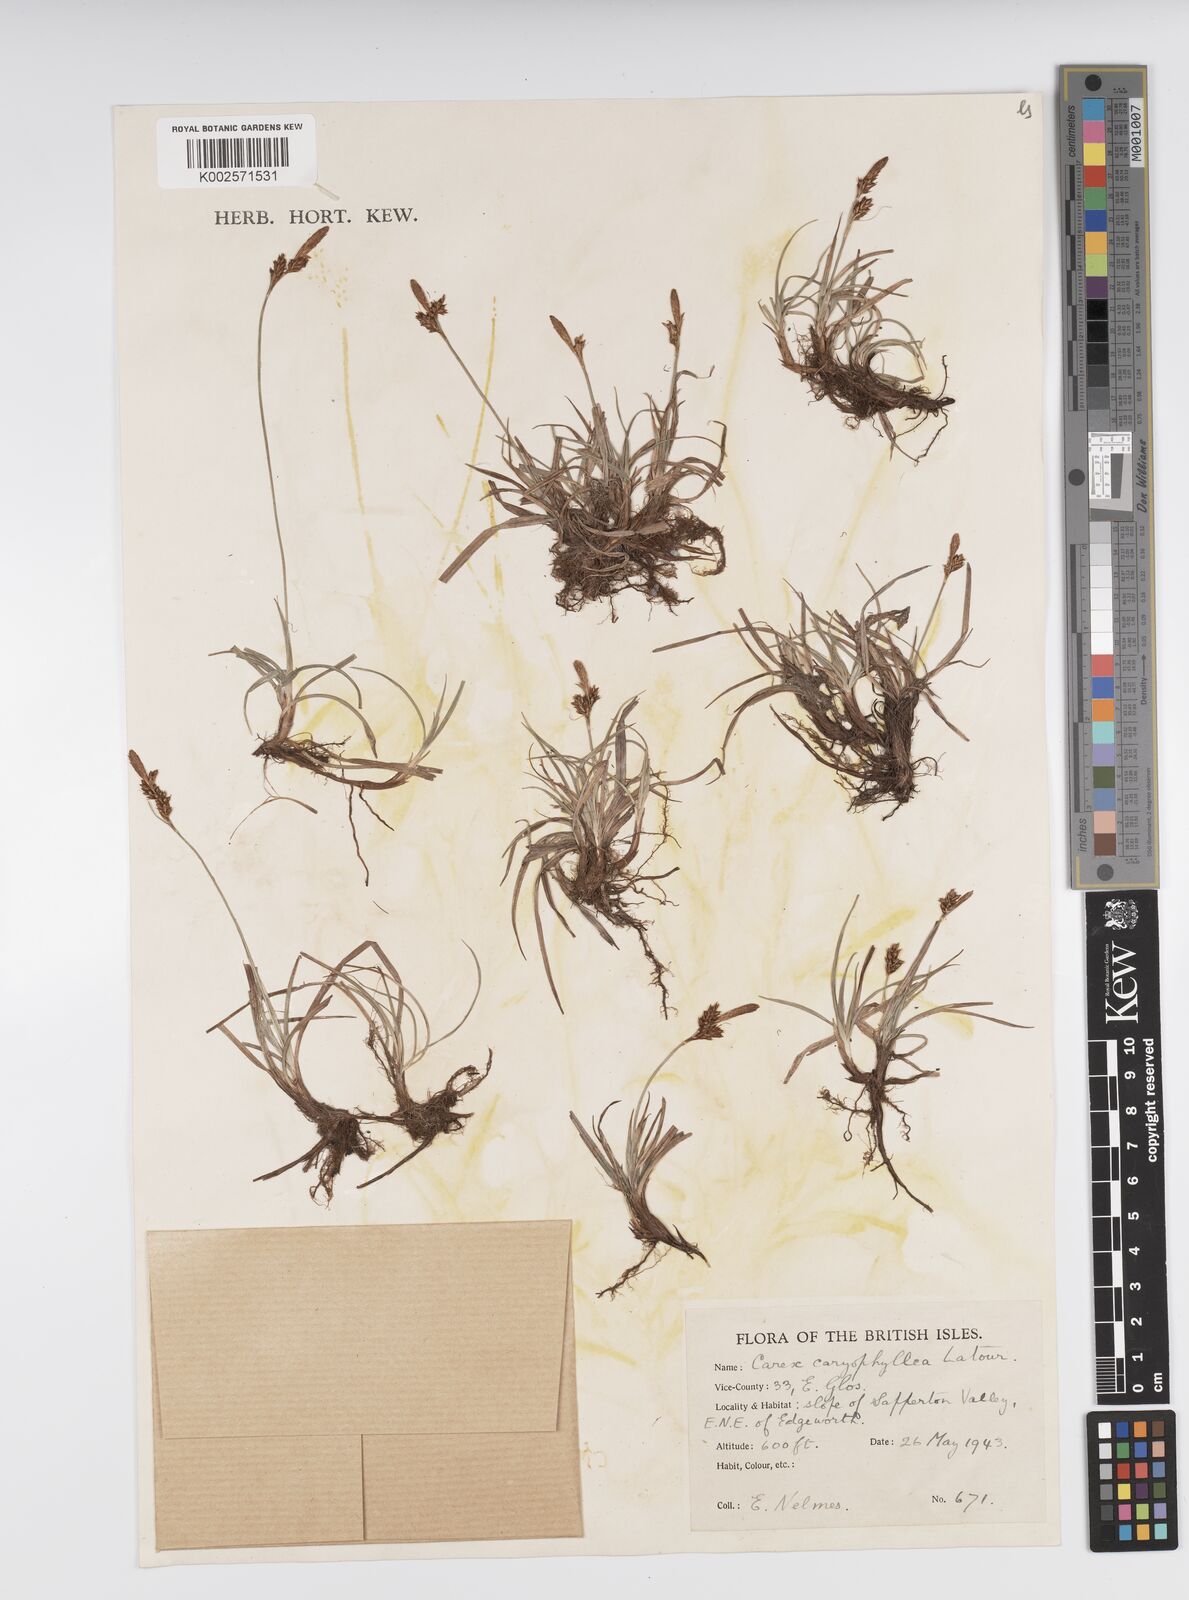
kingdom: Plantae
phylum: Tracheophyta
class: Liliopsida
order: Poales
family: Cyperaceae
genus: Carex
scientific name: Carex caryophyllea
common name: Spring sedge
